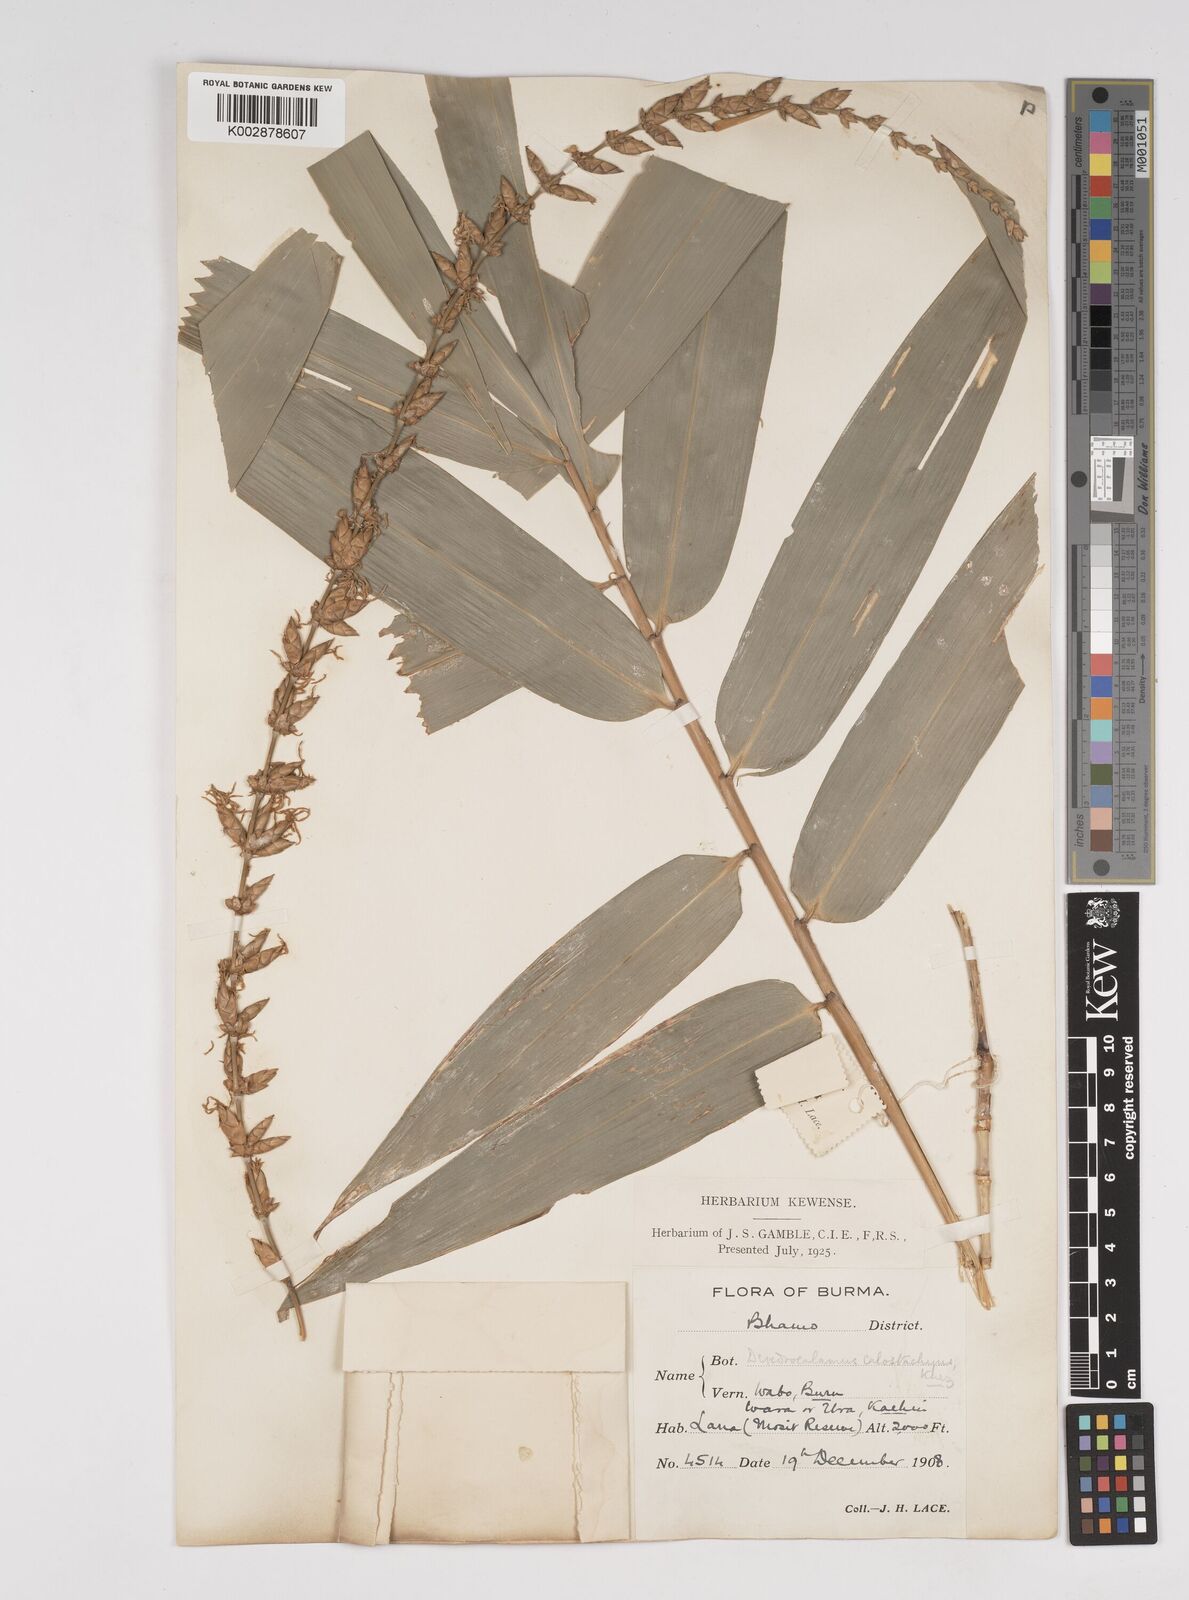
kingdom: Plantae
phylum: Tracheophyta
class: Liliopsida
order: Poales
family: Poaceae
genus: Dendrocalamus
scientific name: Dendrocalamus calostachyus
